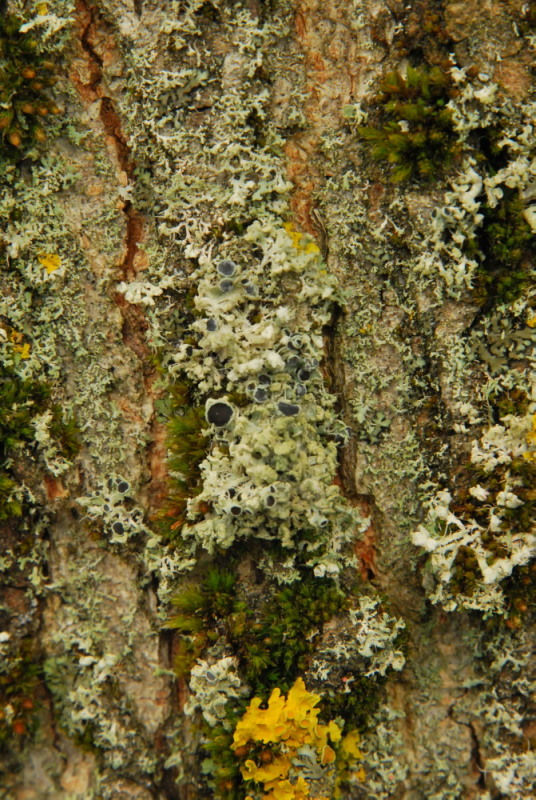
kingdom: Fungi
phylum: Ascomycota
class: Lecanoromycetes
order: Caliciales
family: Physciaceae
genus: Physcia
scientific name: Physcia tenella
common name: spæd rosetlav
